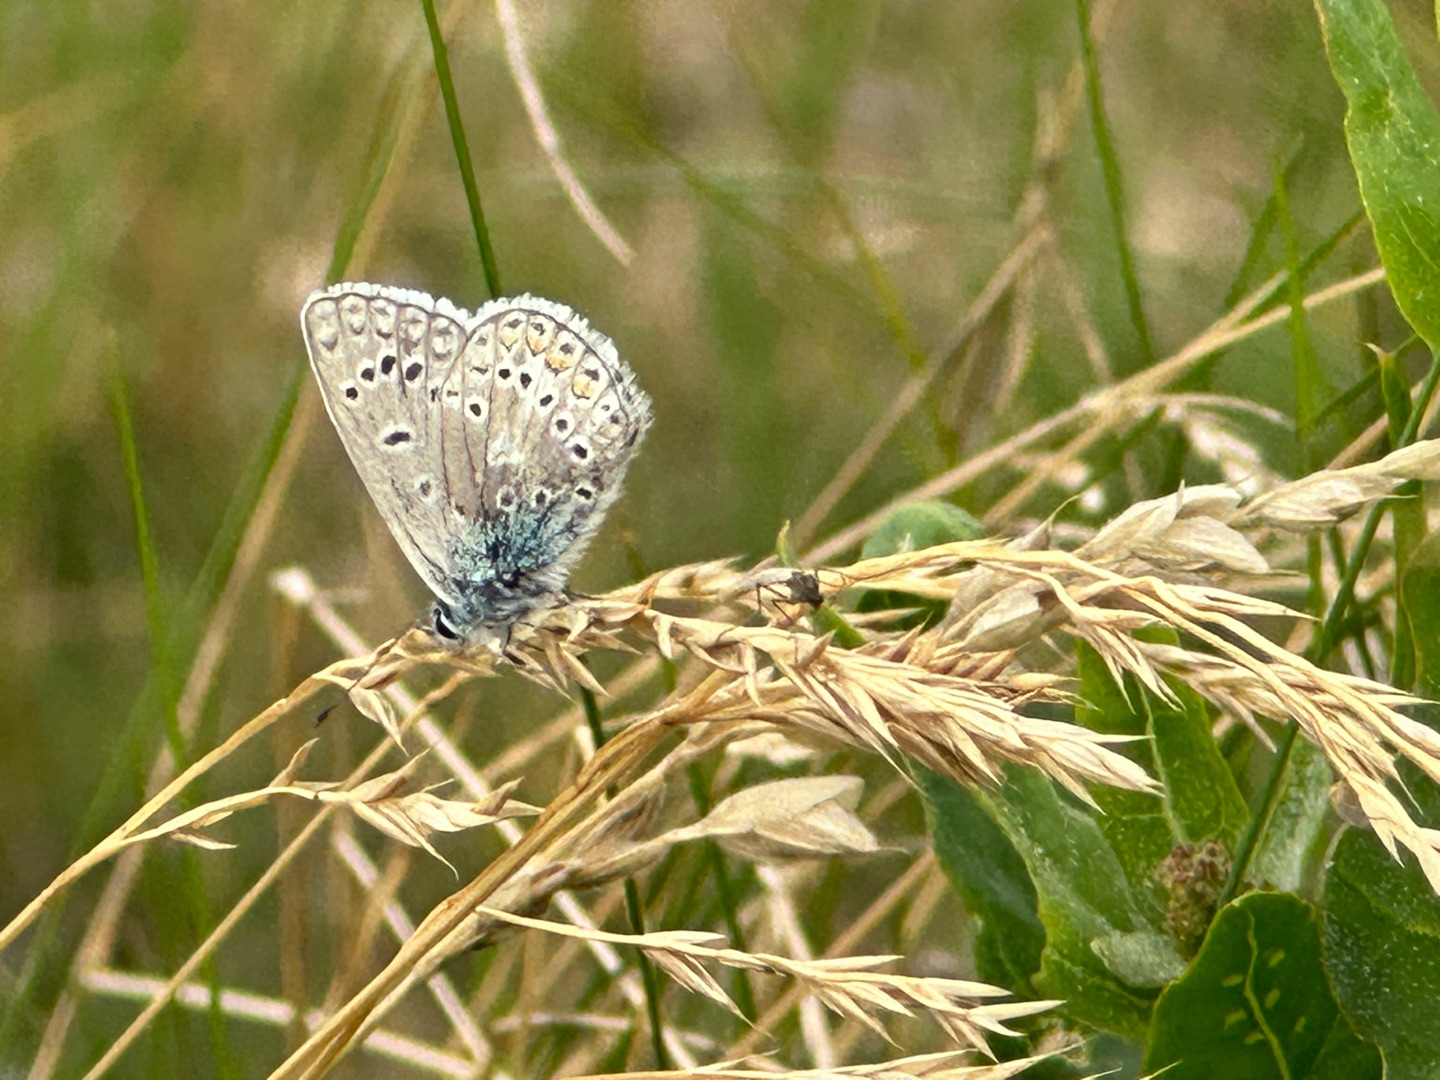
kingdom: Animalia
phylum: Arthropoda
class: Insecta
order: Lepidoptera
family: Lycaenidae
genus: Polyommatus
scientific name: Polyommatus icarus
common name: Almindelig blåfugl
